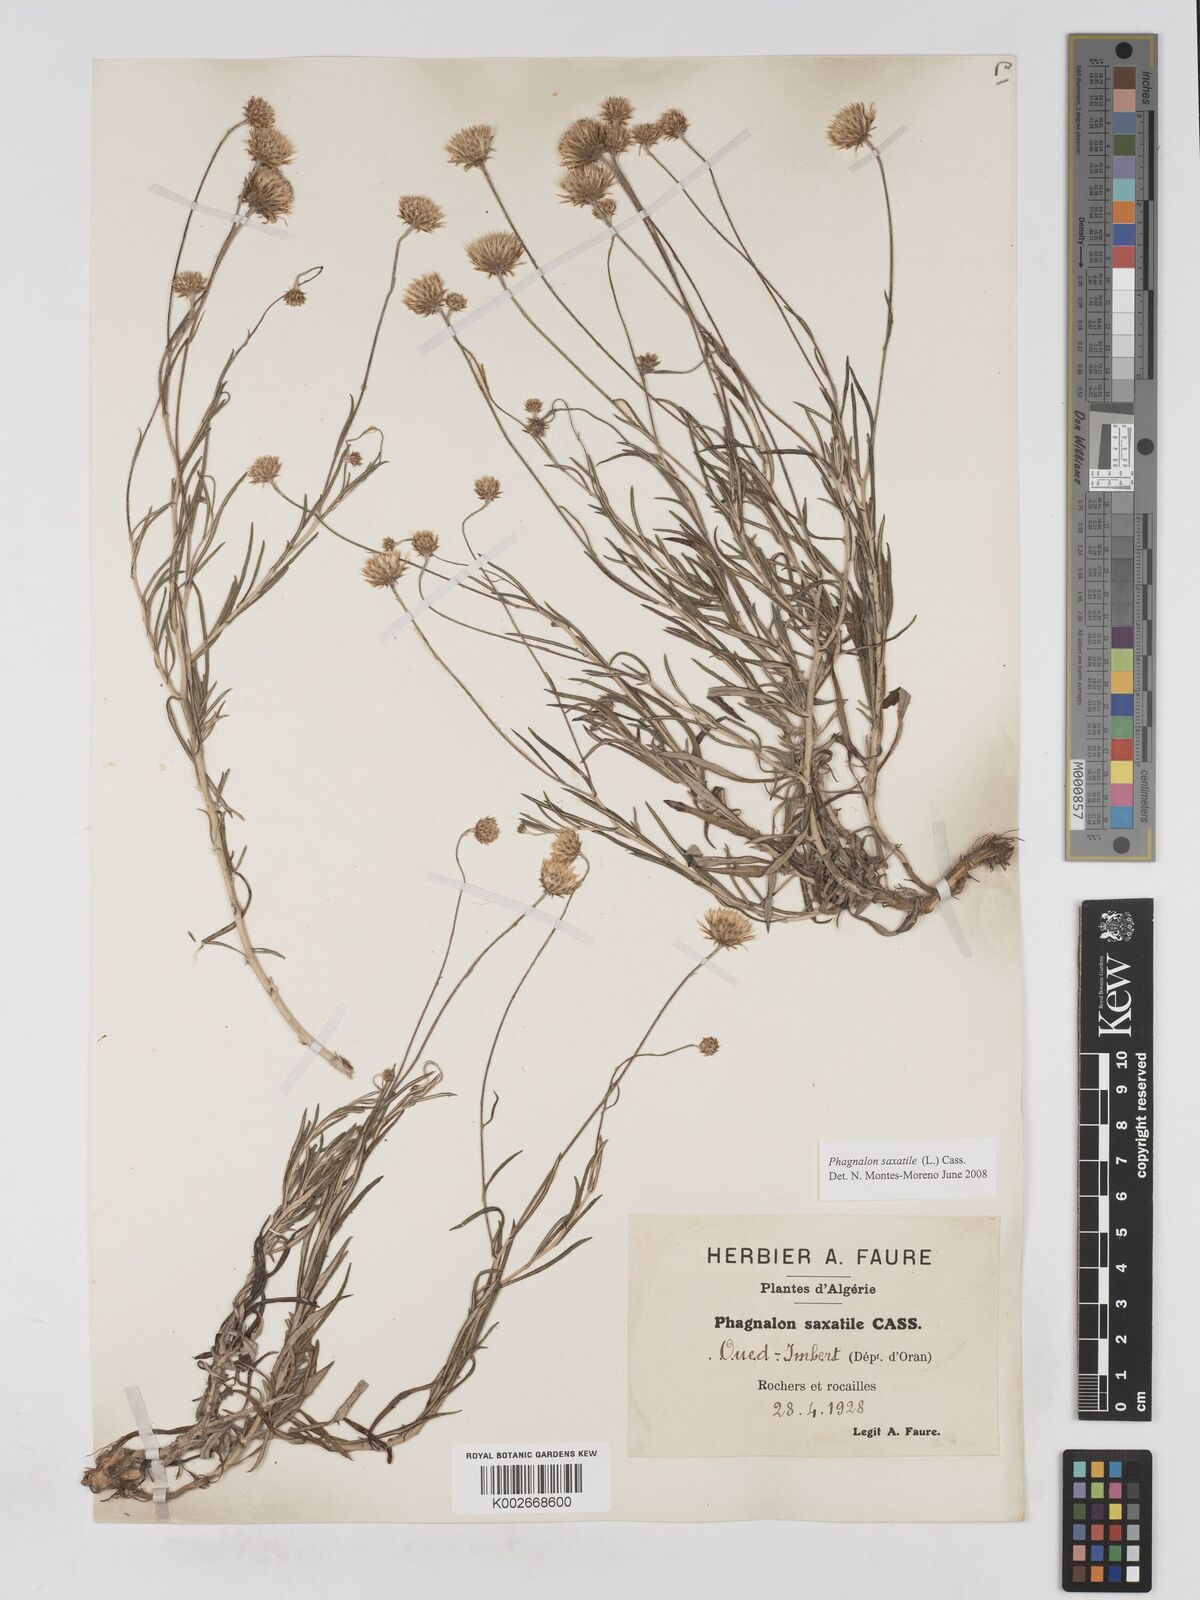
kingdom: Plantae
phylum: Tracheophyta
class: Magnoliopsida
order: Asterales
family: Asteraceae
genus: Phagnalon
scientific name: Phagnalon saxatile
